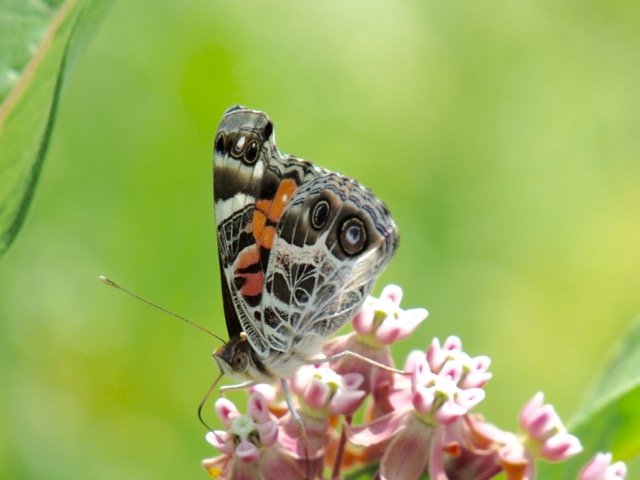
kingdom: Animalia
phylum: Arthropoda
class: Insecta
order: Lepidoptera
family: Nymphalidae
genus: Vanessa
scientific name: Vanessa virginiensis
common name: American Lady
